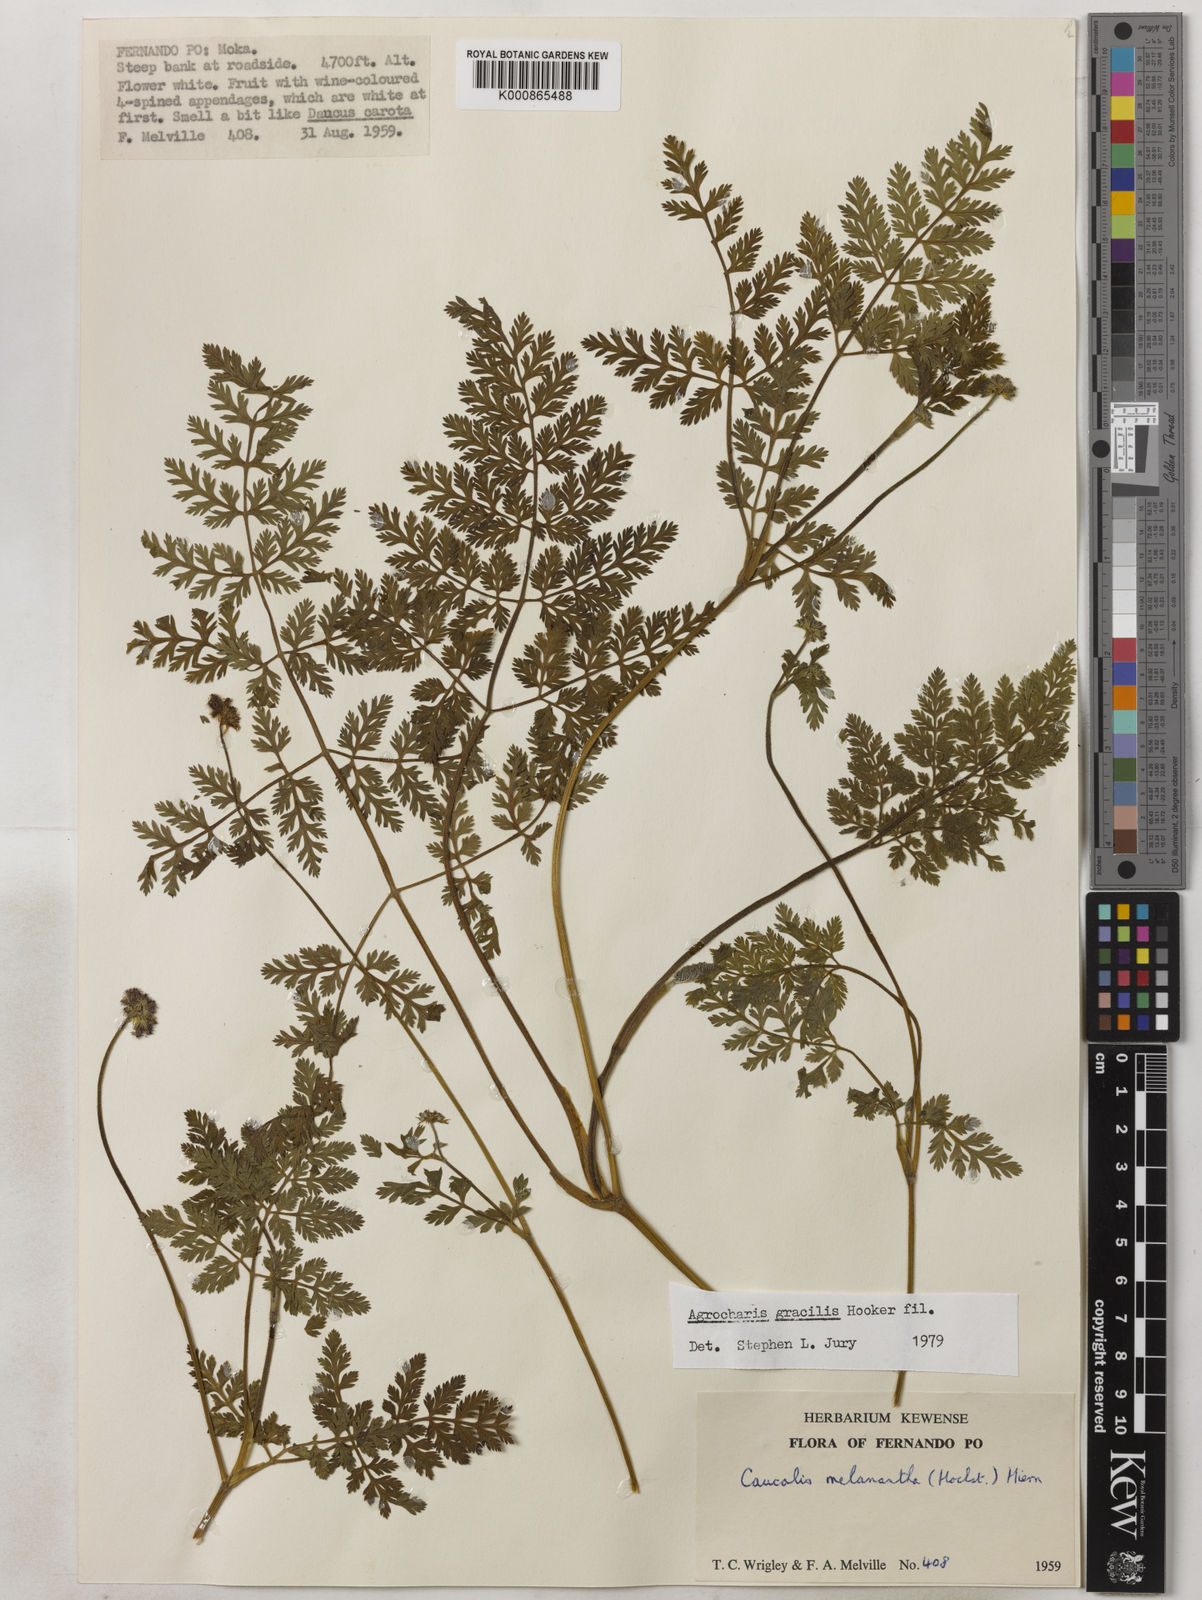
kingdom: Plantae
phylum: Tracheophyta
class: Magnoliopsida
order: Apiales
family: Apiaceae
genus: Daucus
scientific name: Daucus melananthus
